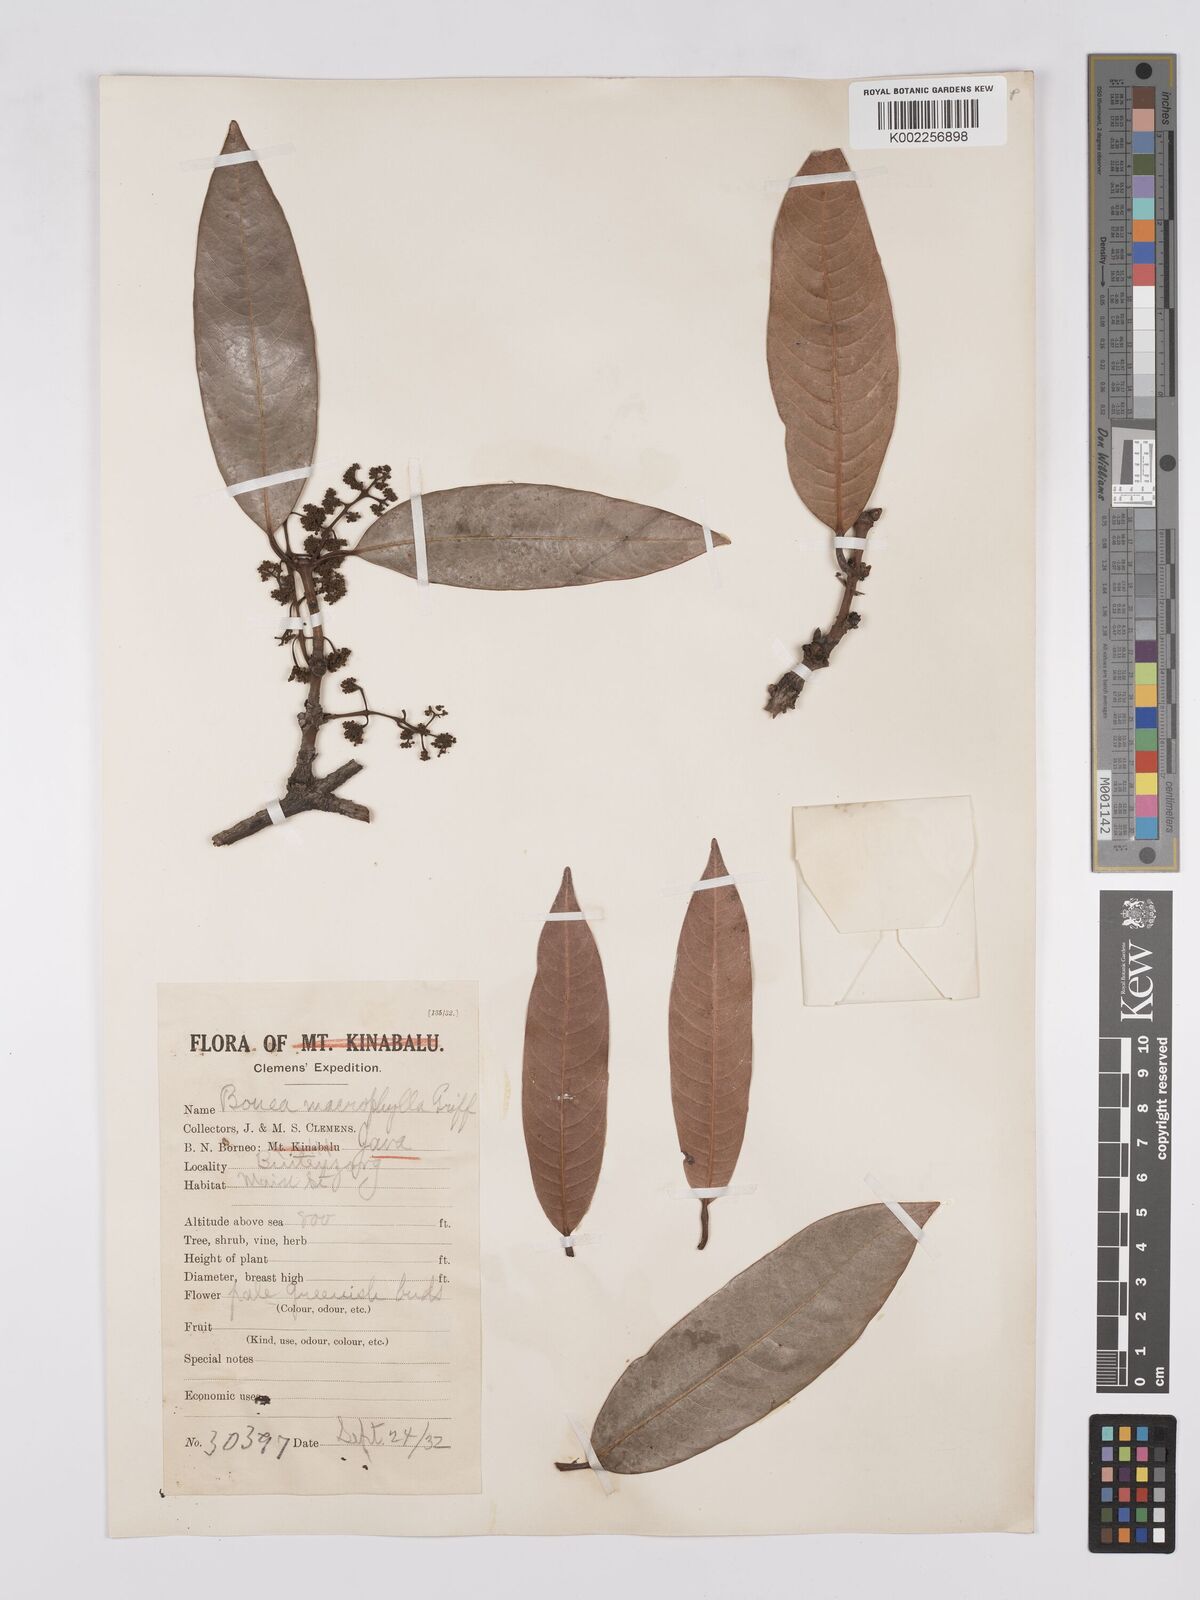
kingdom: Plantae
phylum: Tracheophyta
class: Magnoliopsida
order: Sapindales
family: Anacardiaceae
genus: Bouea
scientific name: Bouea macrophylla
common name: Gandaria
